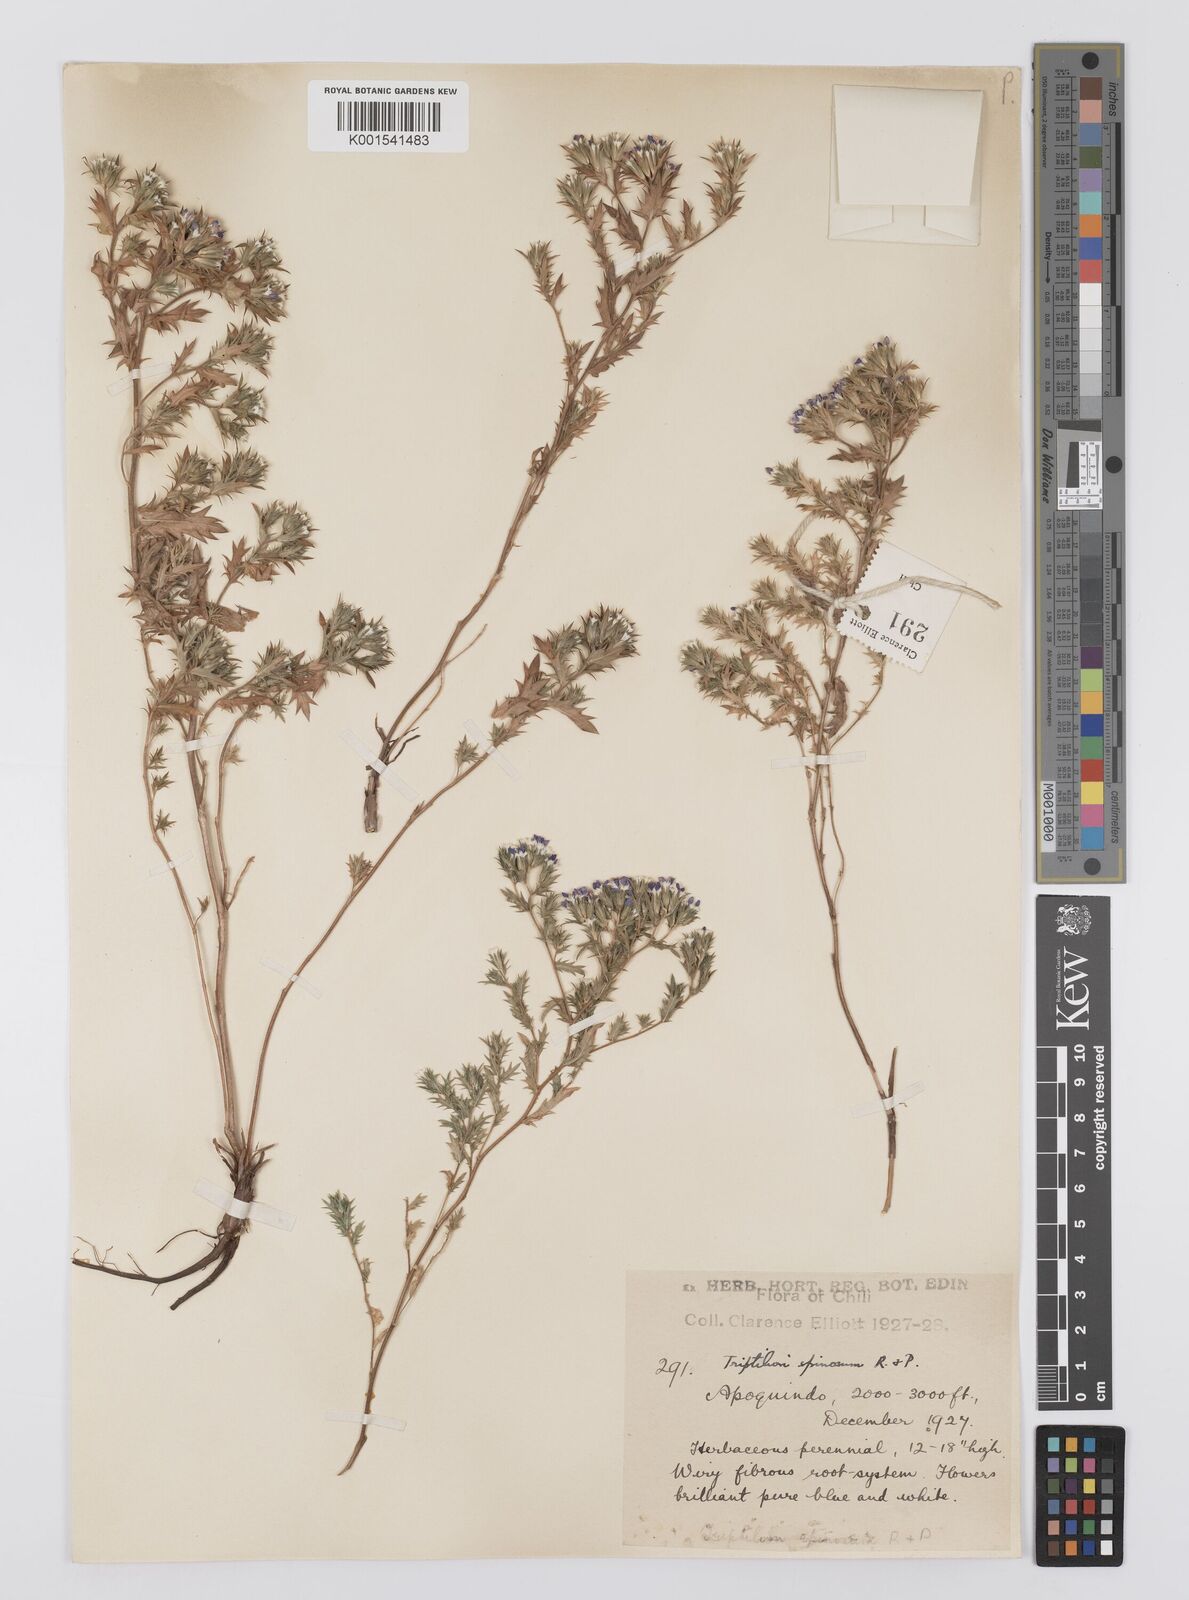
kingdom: Plantae
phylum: Tracheophyta
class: Magnoliopsida
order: Asterales
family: Asteraceae
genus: Triptilion
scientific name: Triptilion spinosum
